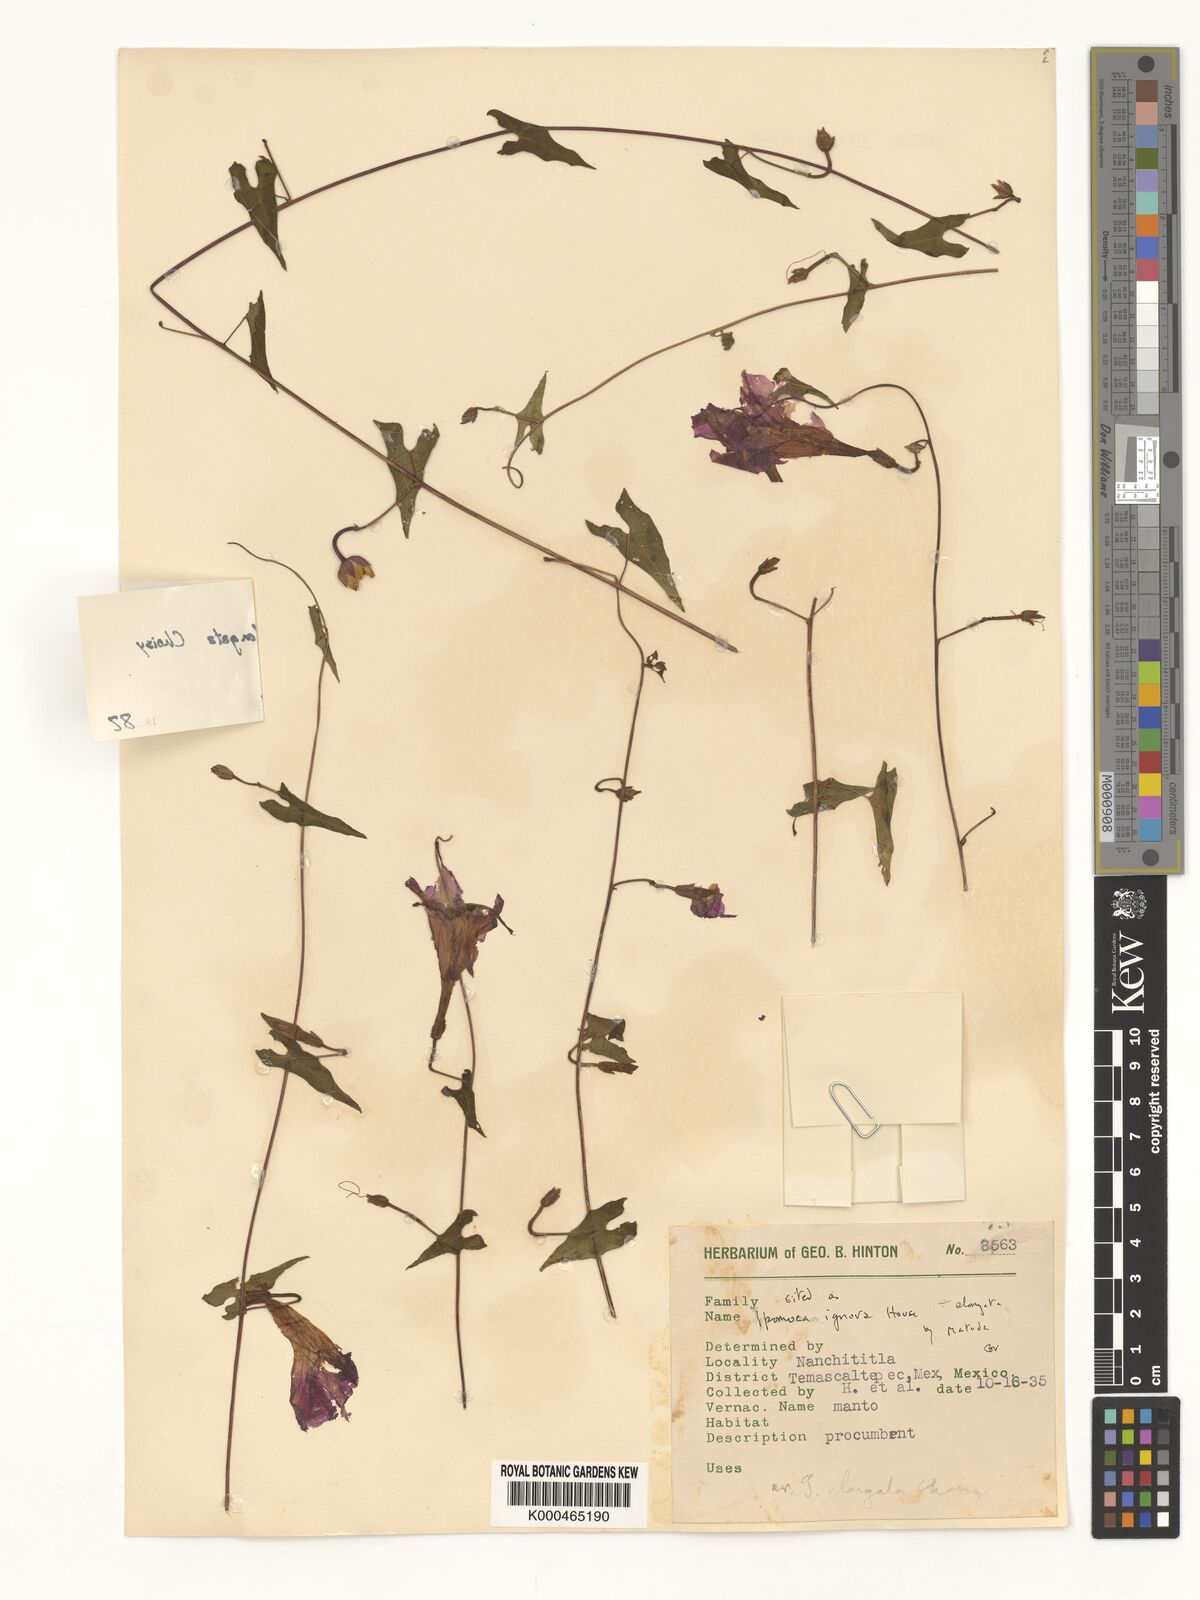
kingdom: Plantae
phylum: Tracheophyta
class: Magnoliopsida
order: Solanales
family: Convolvulaceae
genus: Ipomoea
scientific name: Ipomoea elongata
